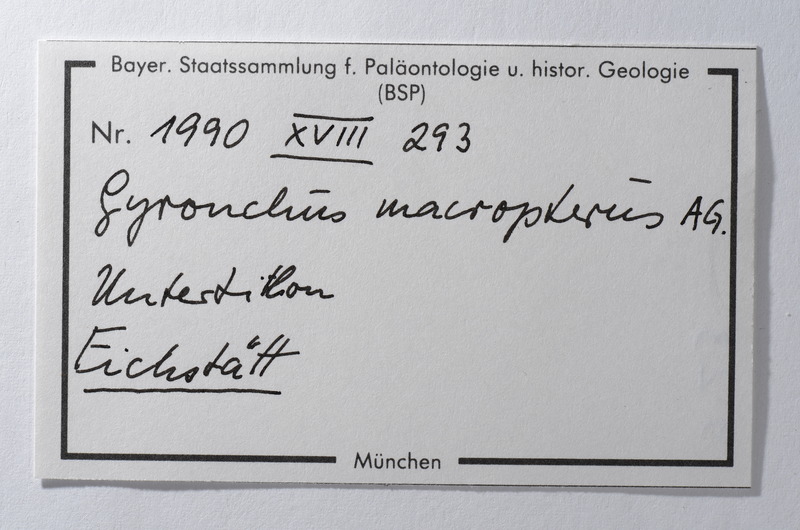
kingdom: Animalia
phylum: Chordata
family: Pycnodontidae
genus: Gyronchus
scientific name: Gyronchus
